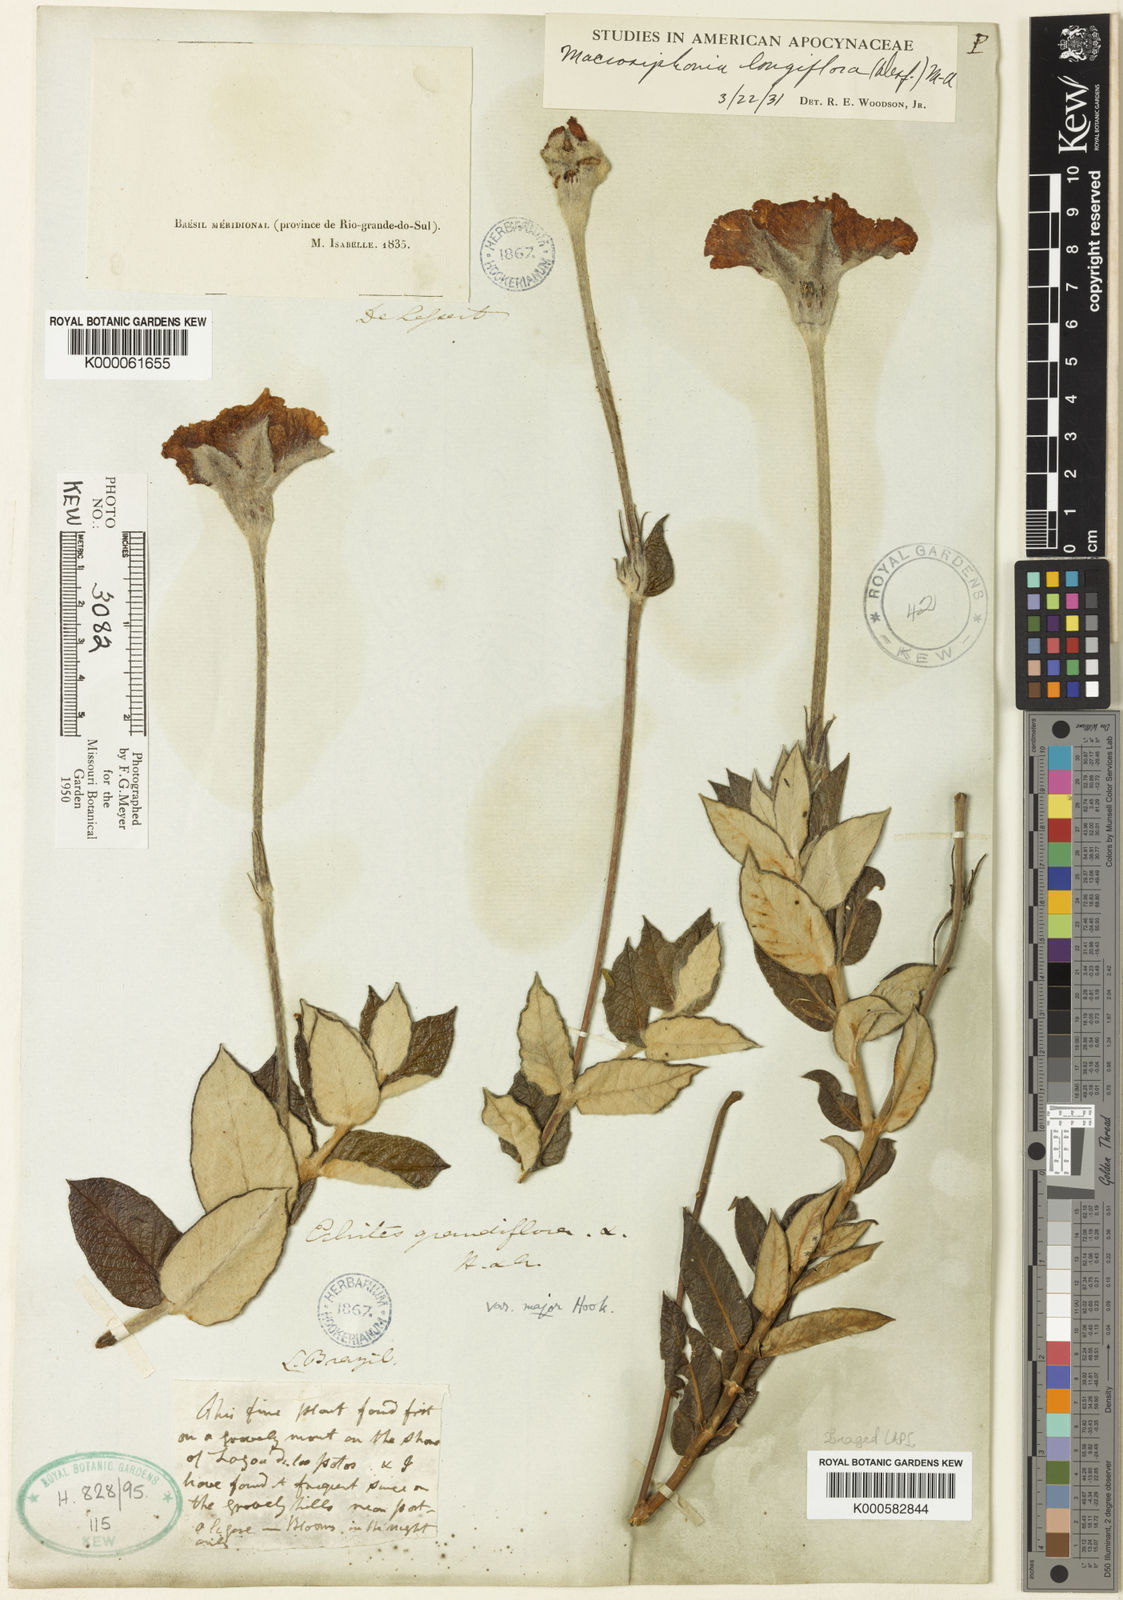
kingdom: Plantae
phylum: Tracheophyta
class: Magnoliopsida
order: Gentianales
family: Apocynaceae
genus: Mandevilla
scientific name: Mandevilla longiflora
